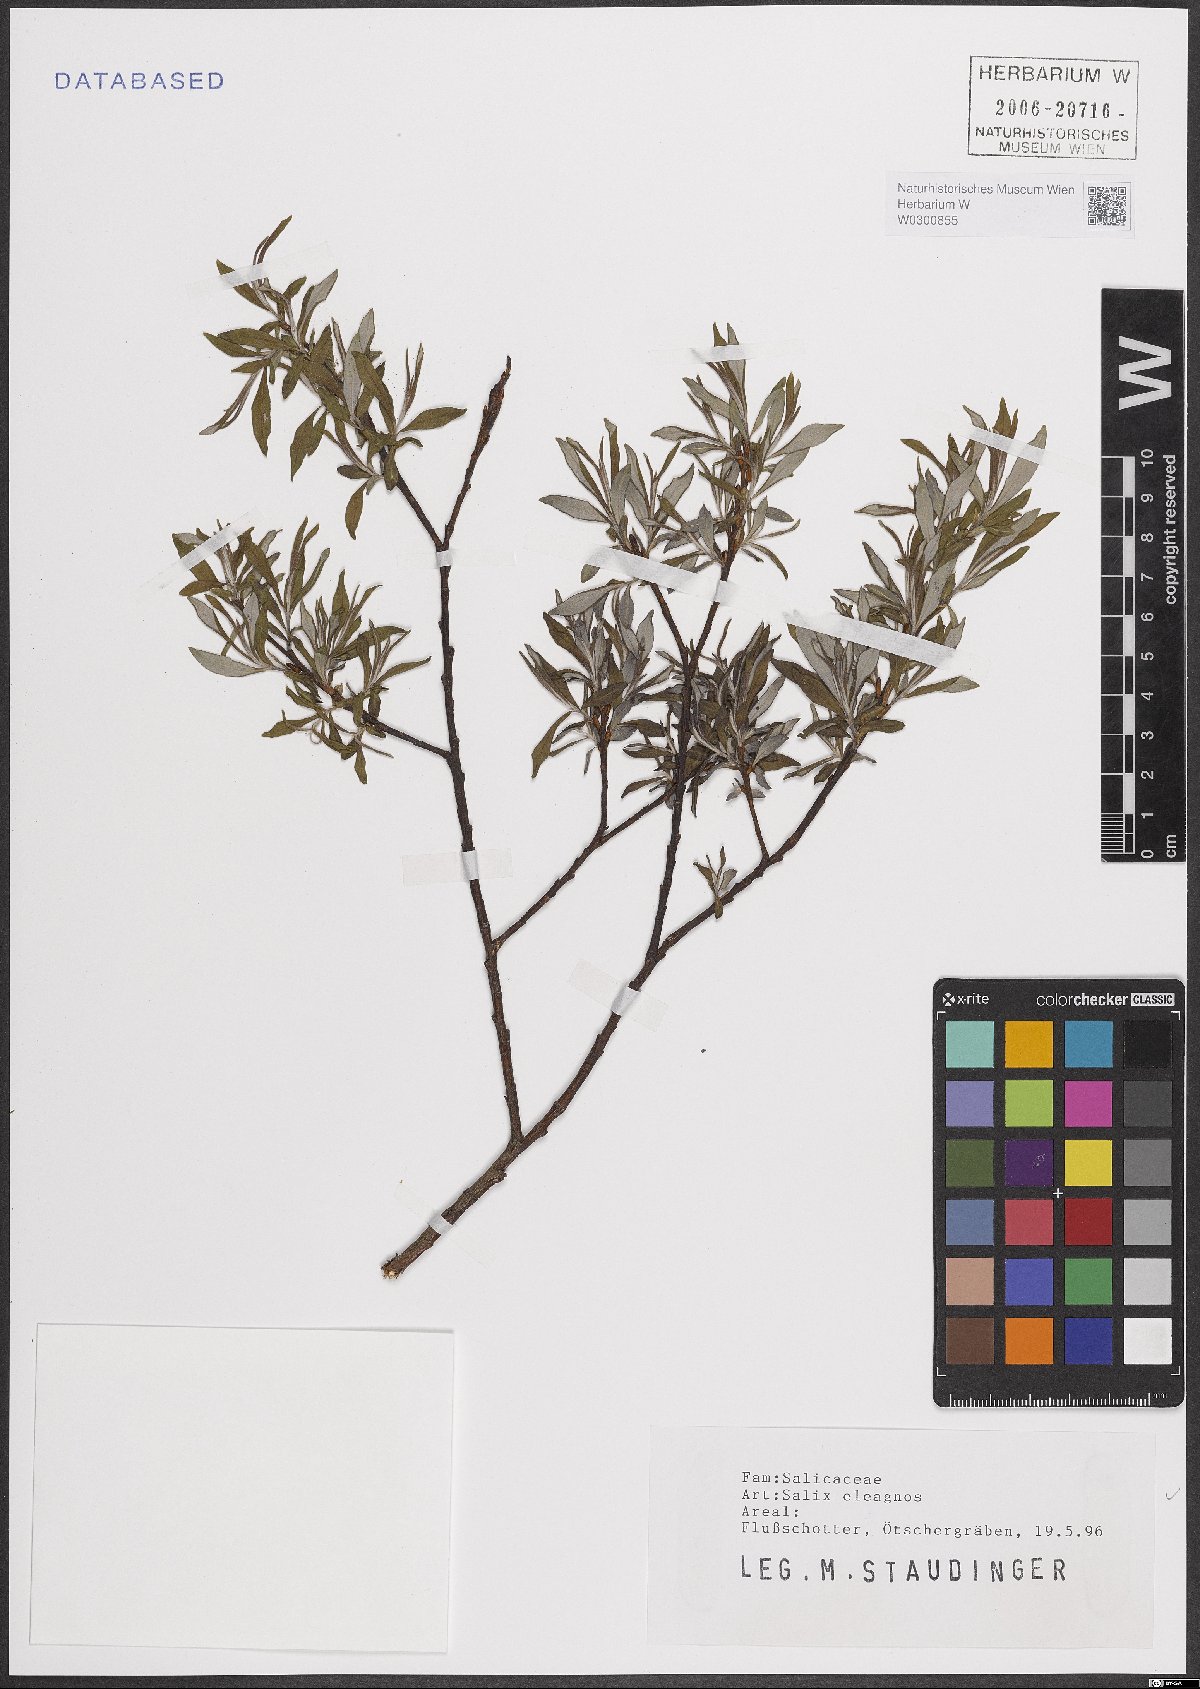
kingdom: Plantae
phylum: Tracheophyta
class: Magnoliopsida
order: Malpighiales
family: Salicaceae
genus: Salix
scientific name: Salix eleagnos
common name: Elaeagnus willow
